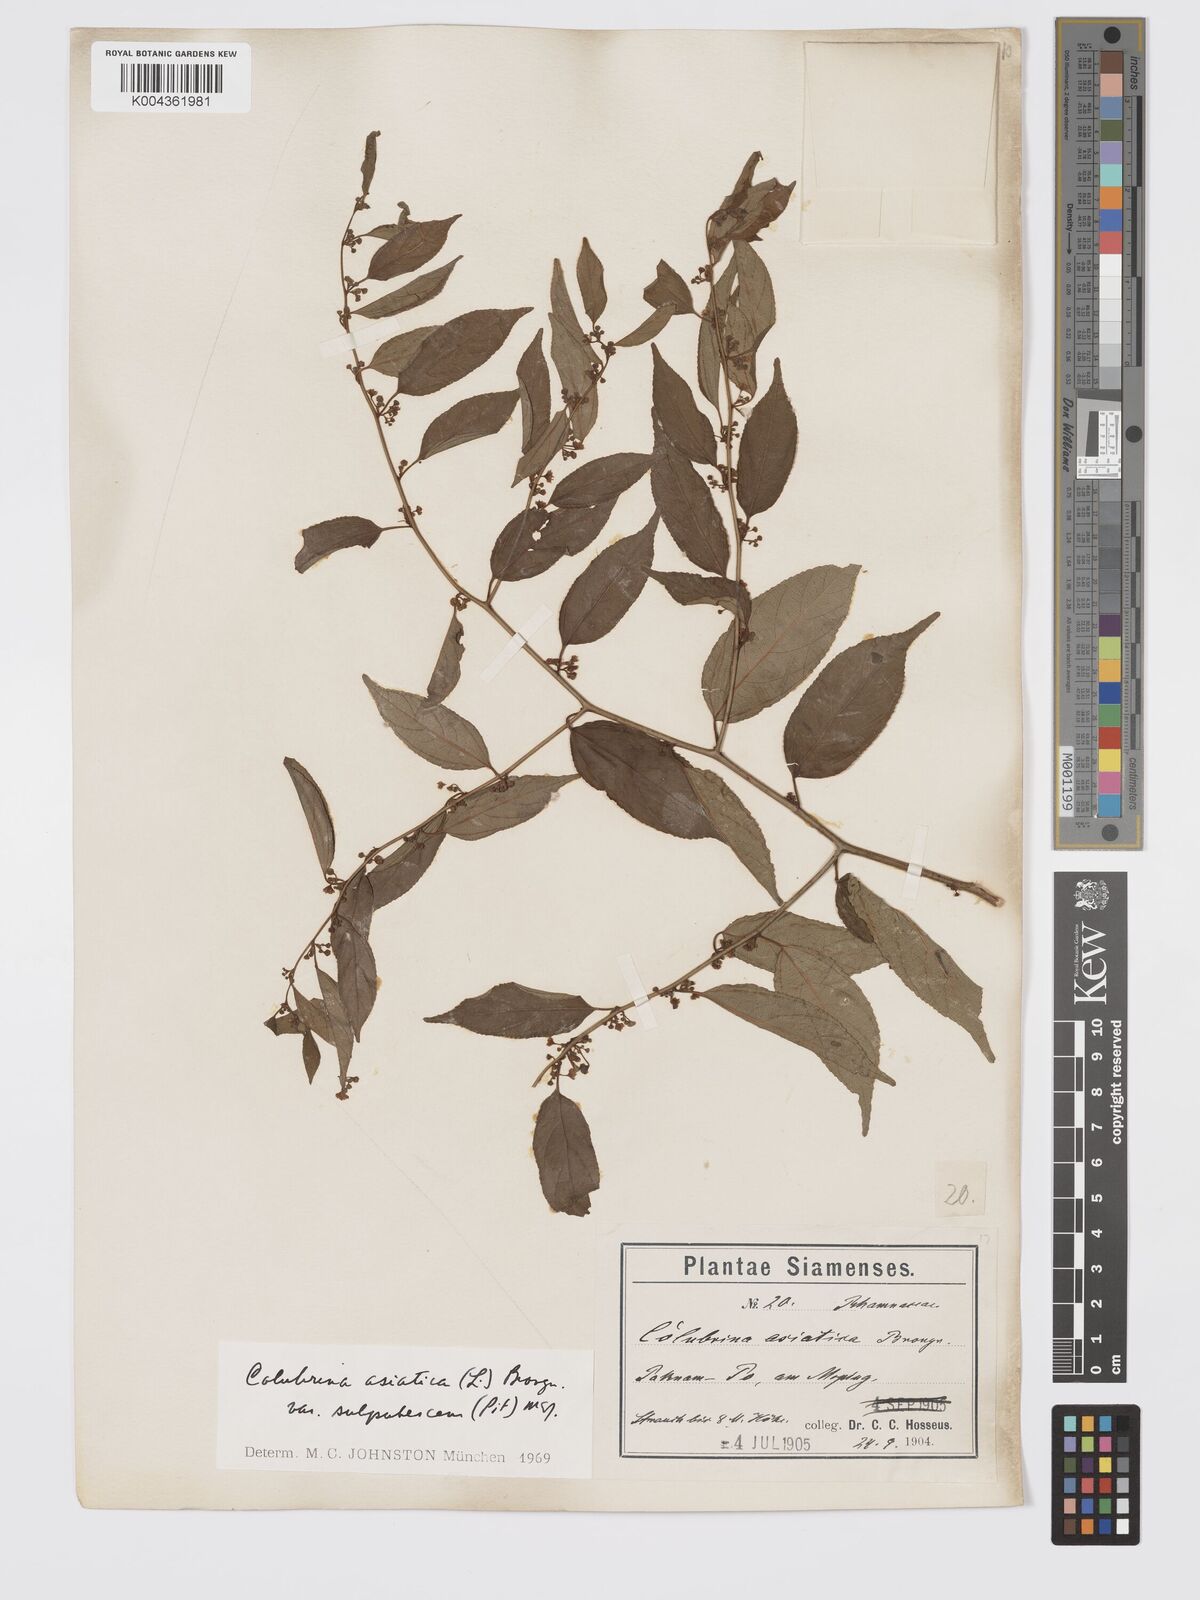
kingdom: Plantae
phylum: Tracheophyta
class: Magnoliopsida
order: Rosales
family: Rhamnaceae
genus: Colubrina
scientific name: Colubrina javanica
